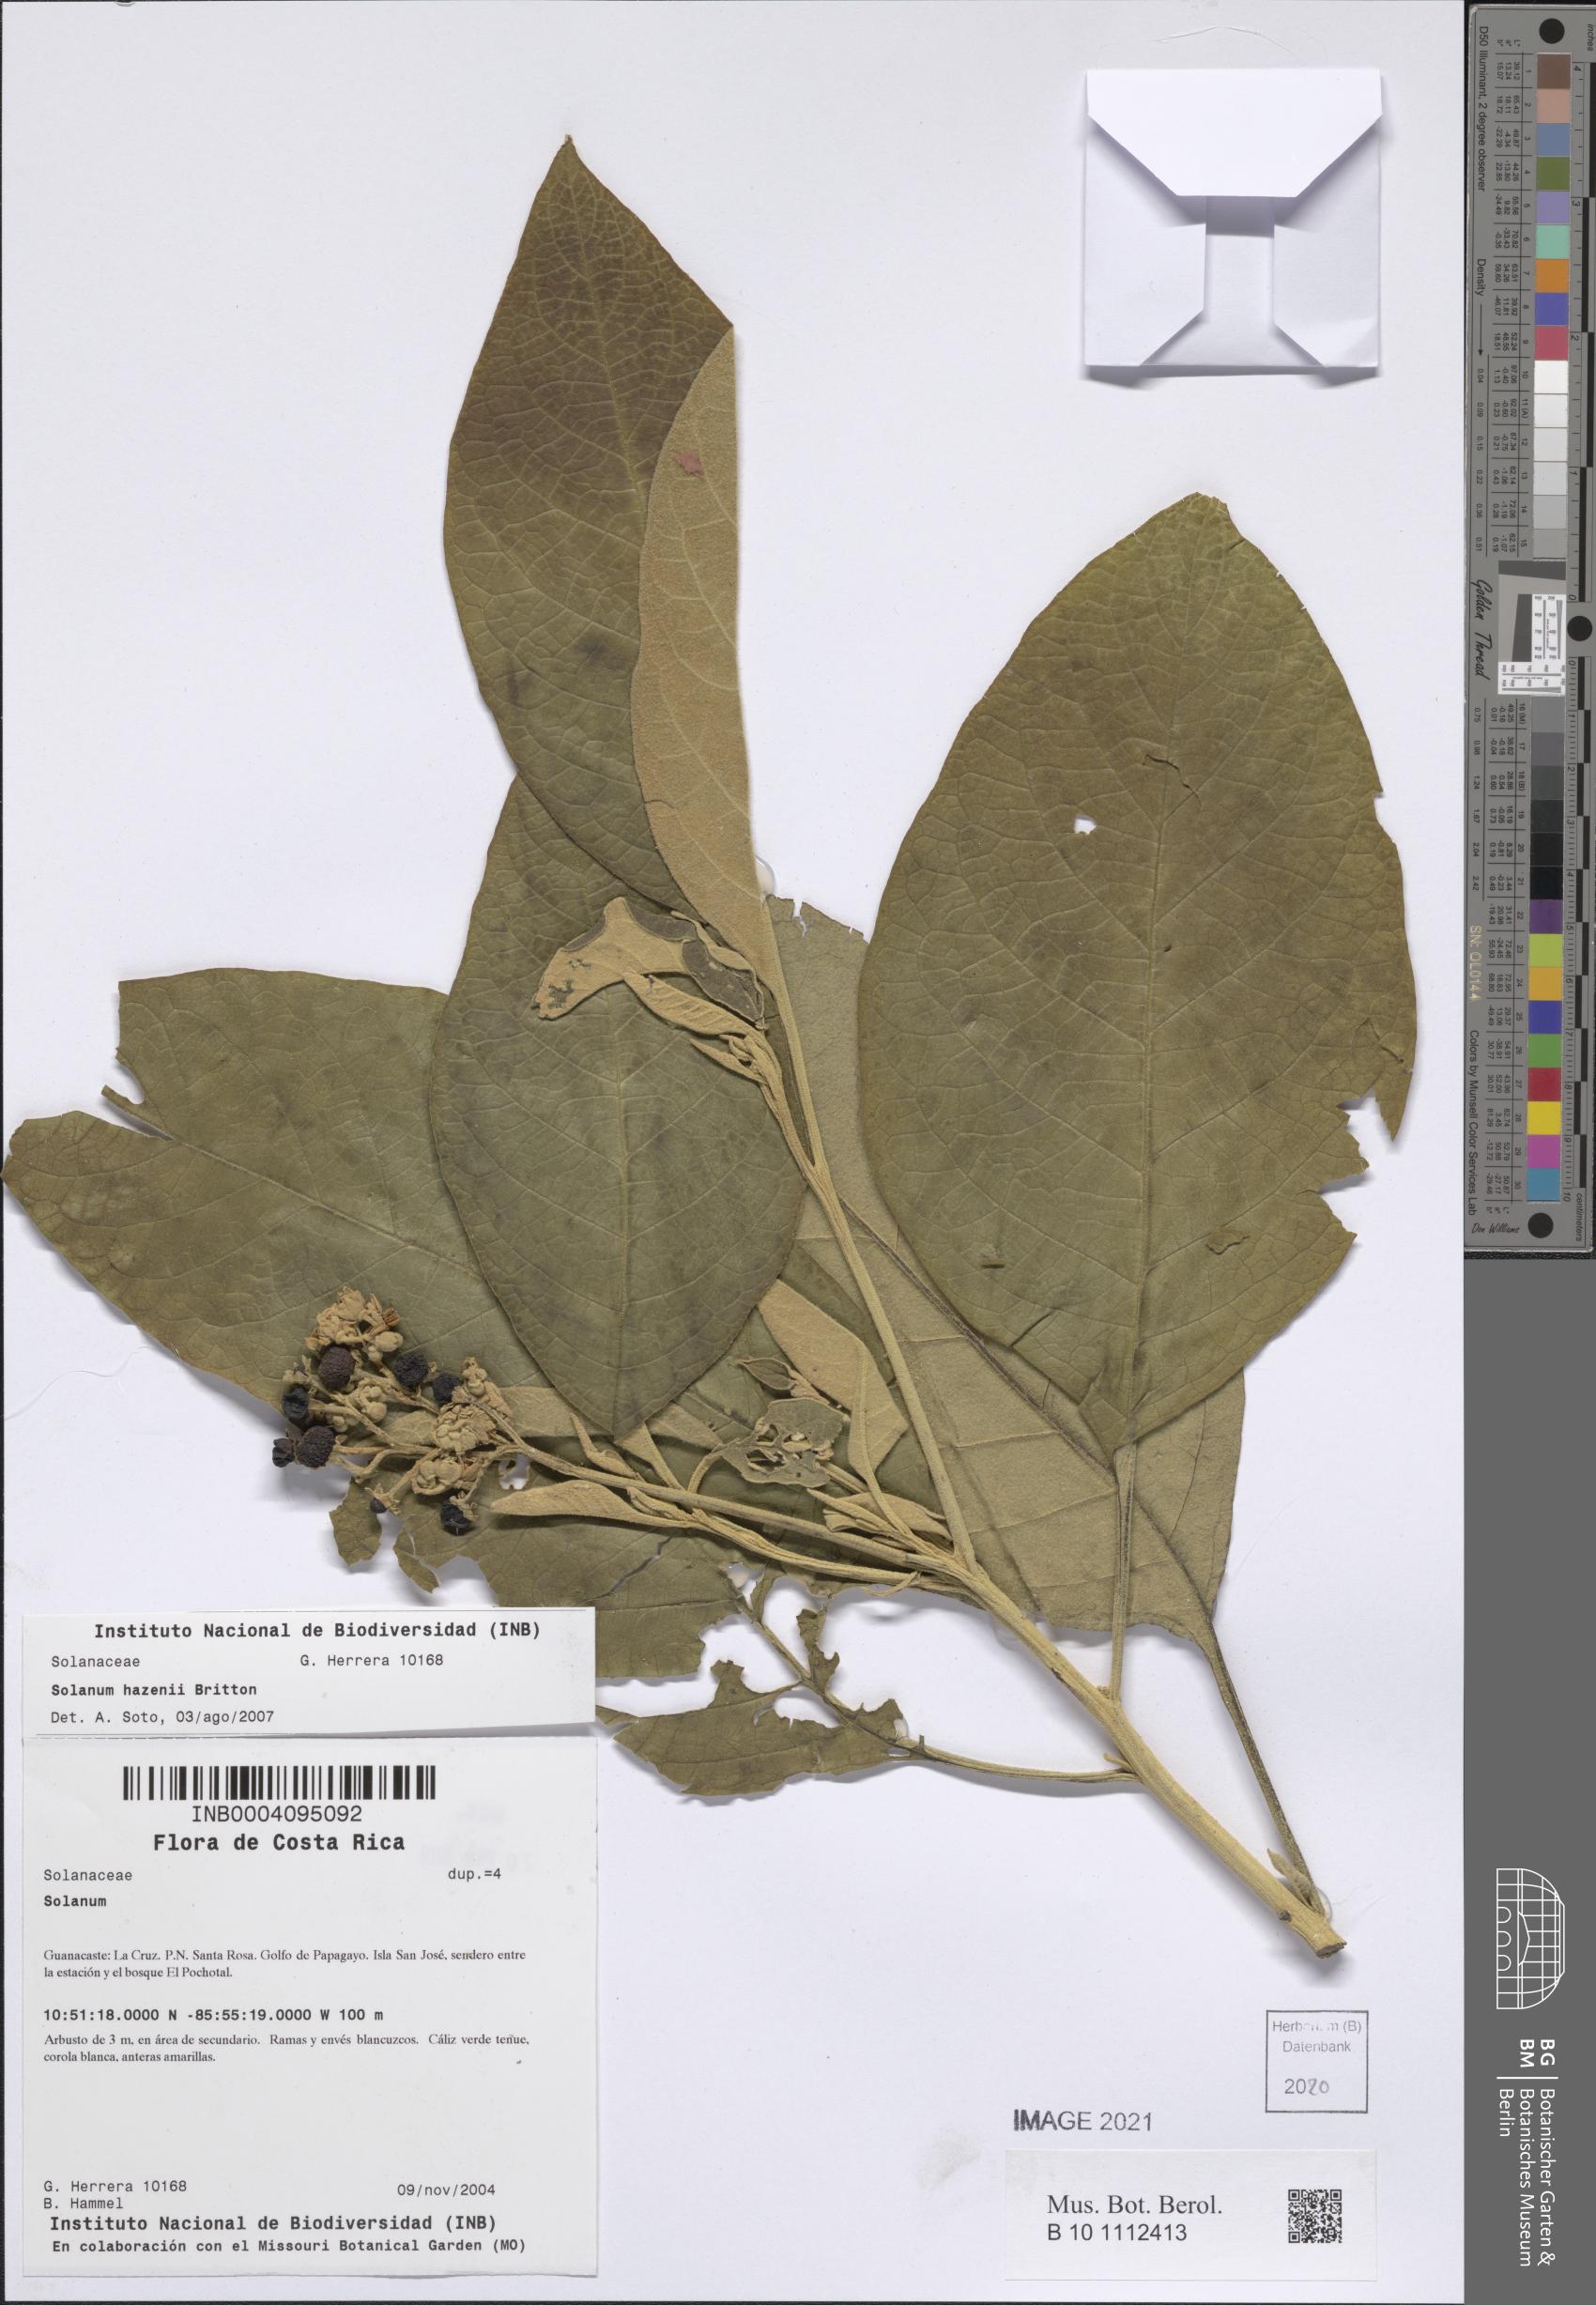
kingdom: Plantae
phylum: Tracheophyta
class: Magnoliopsida
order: Solanales
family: Solanaceae
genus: Solanum
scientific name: Solanum hazenii
